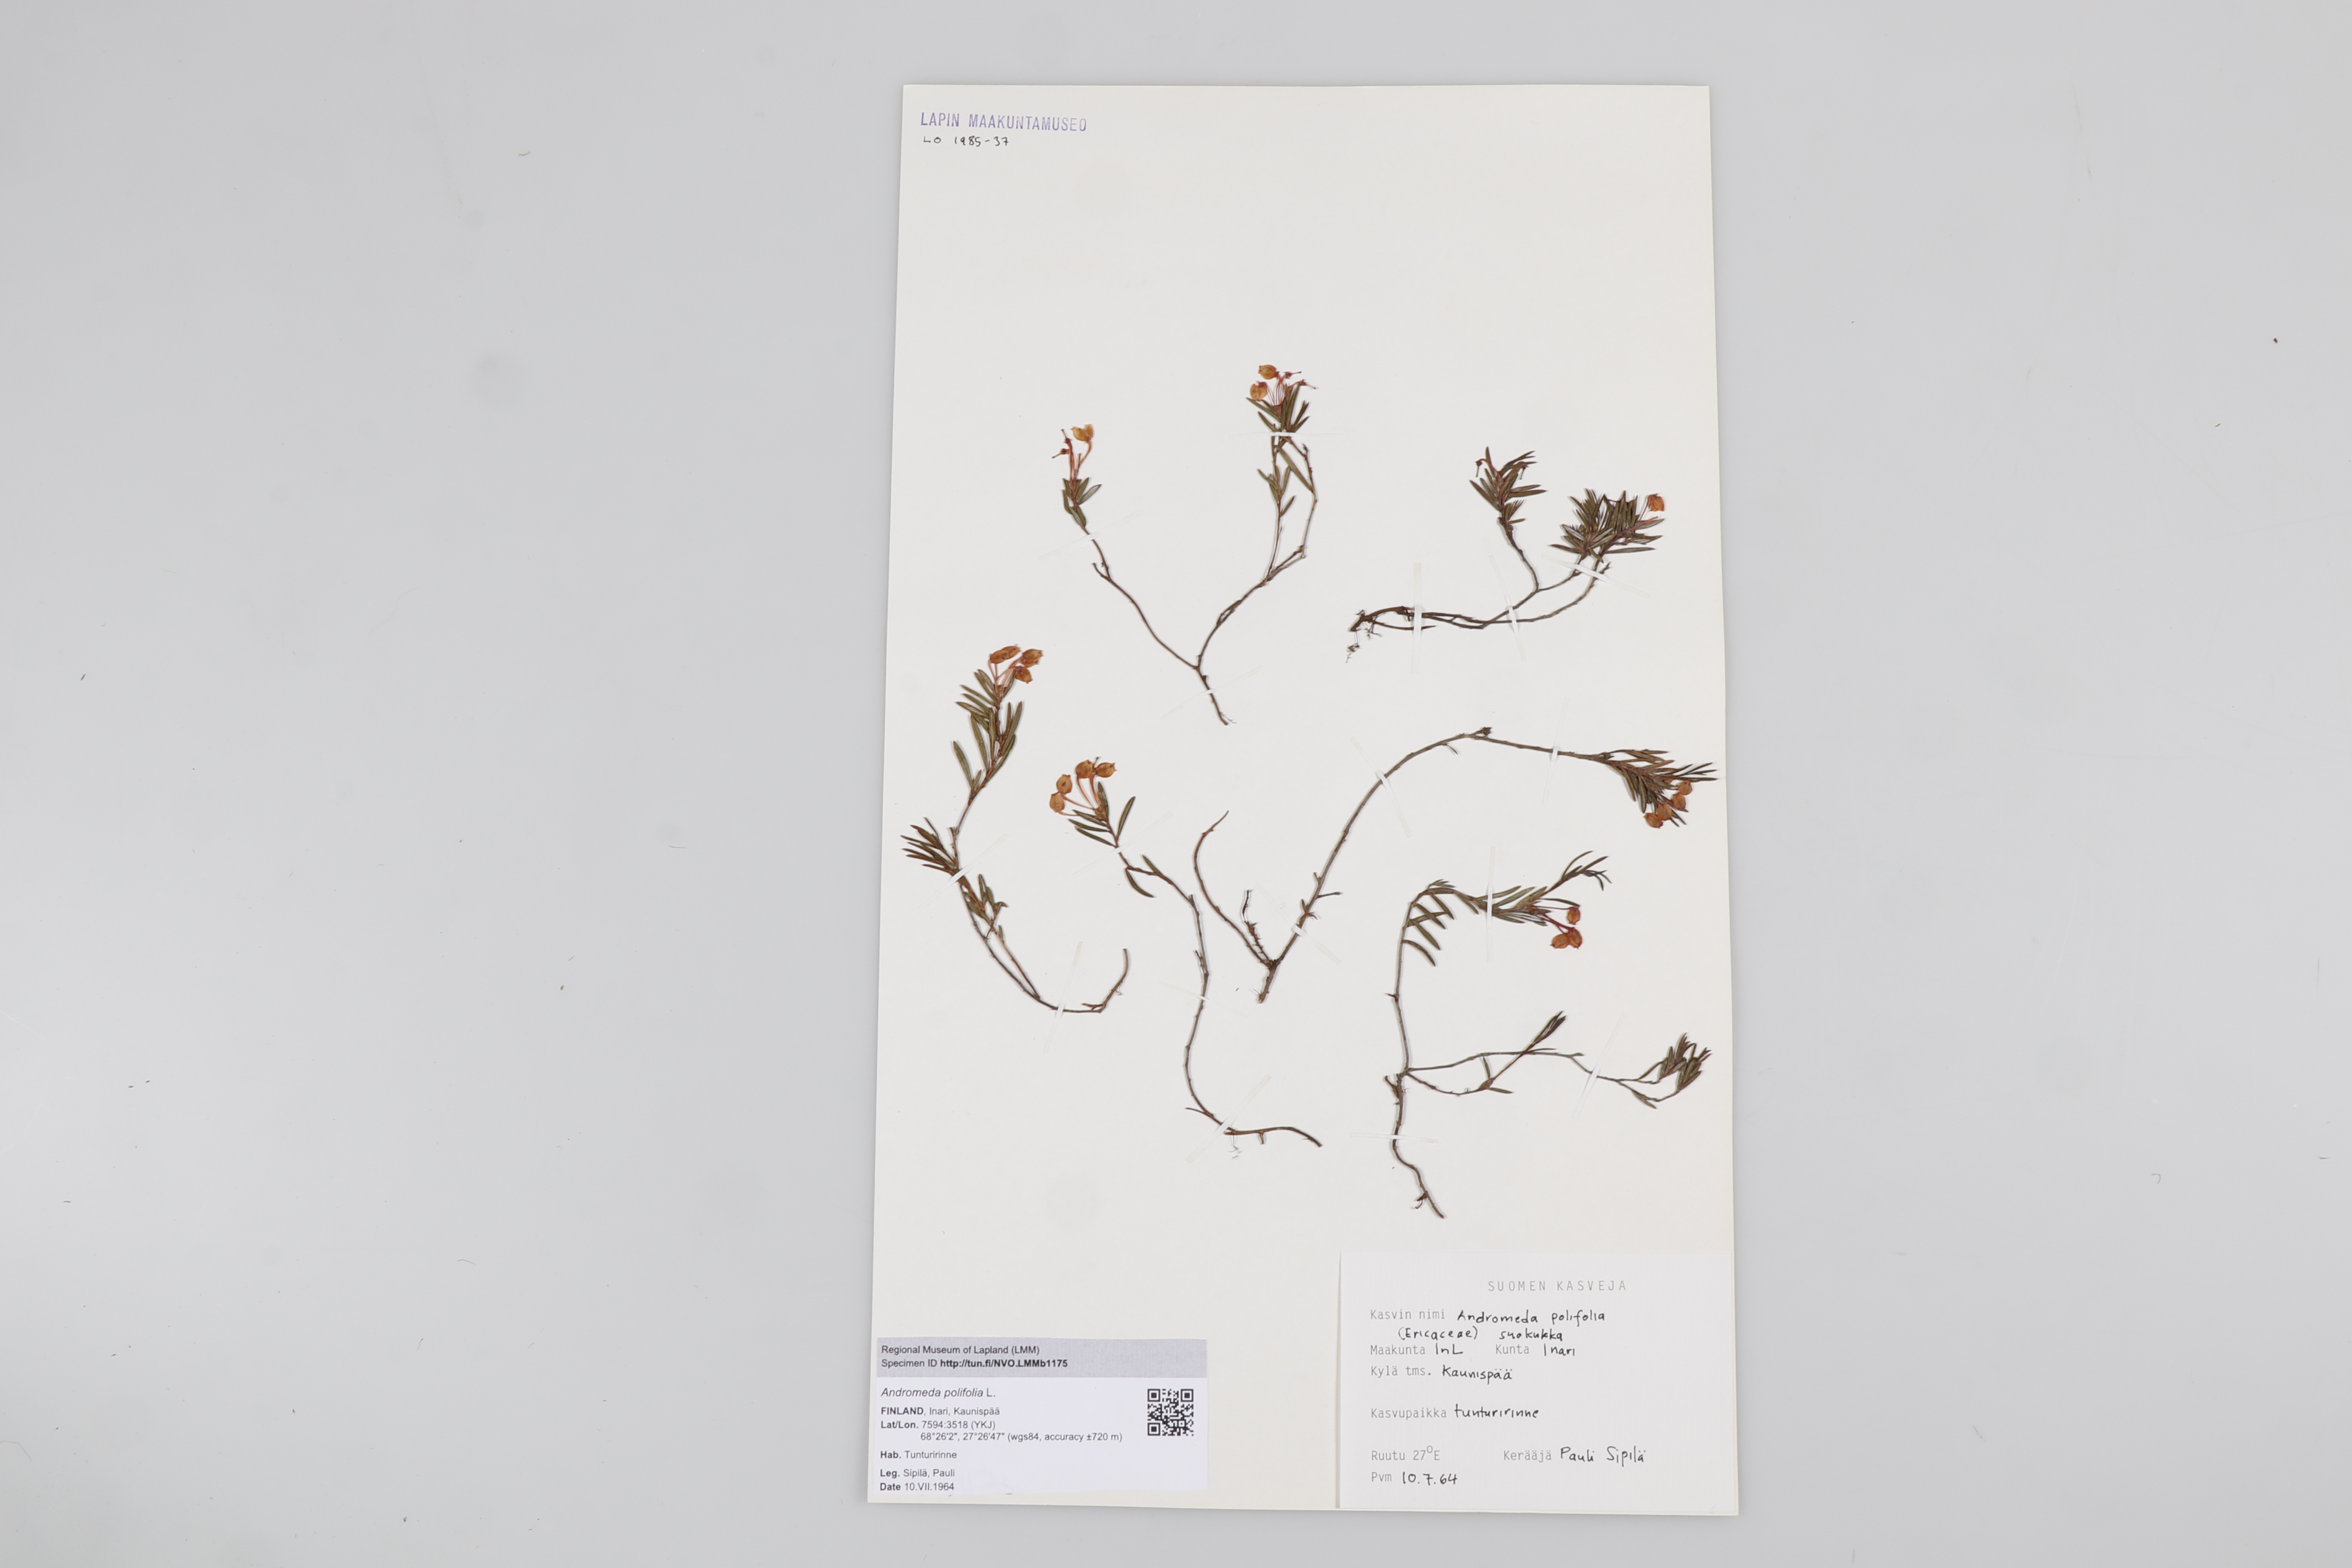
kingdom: Plantae
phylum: Tracheophyta
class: Magnoliopsida
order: Ericales
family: Ericaceae
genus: Andromeda
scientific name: Andromeda polifolia
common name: Bog-rosemary
